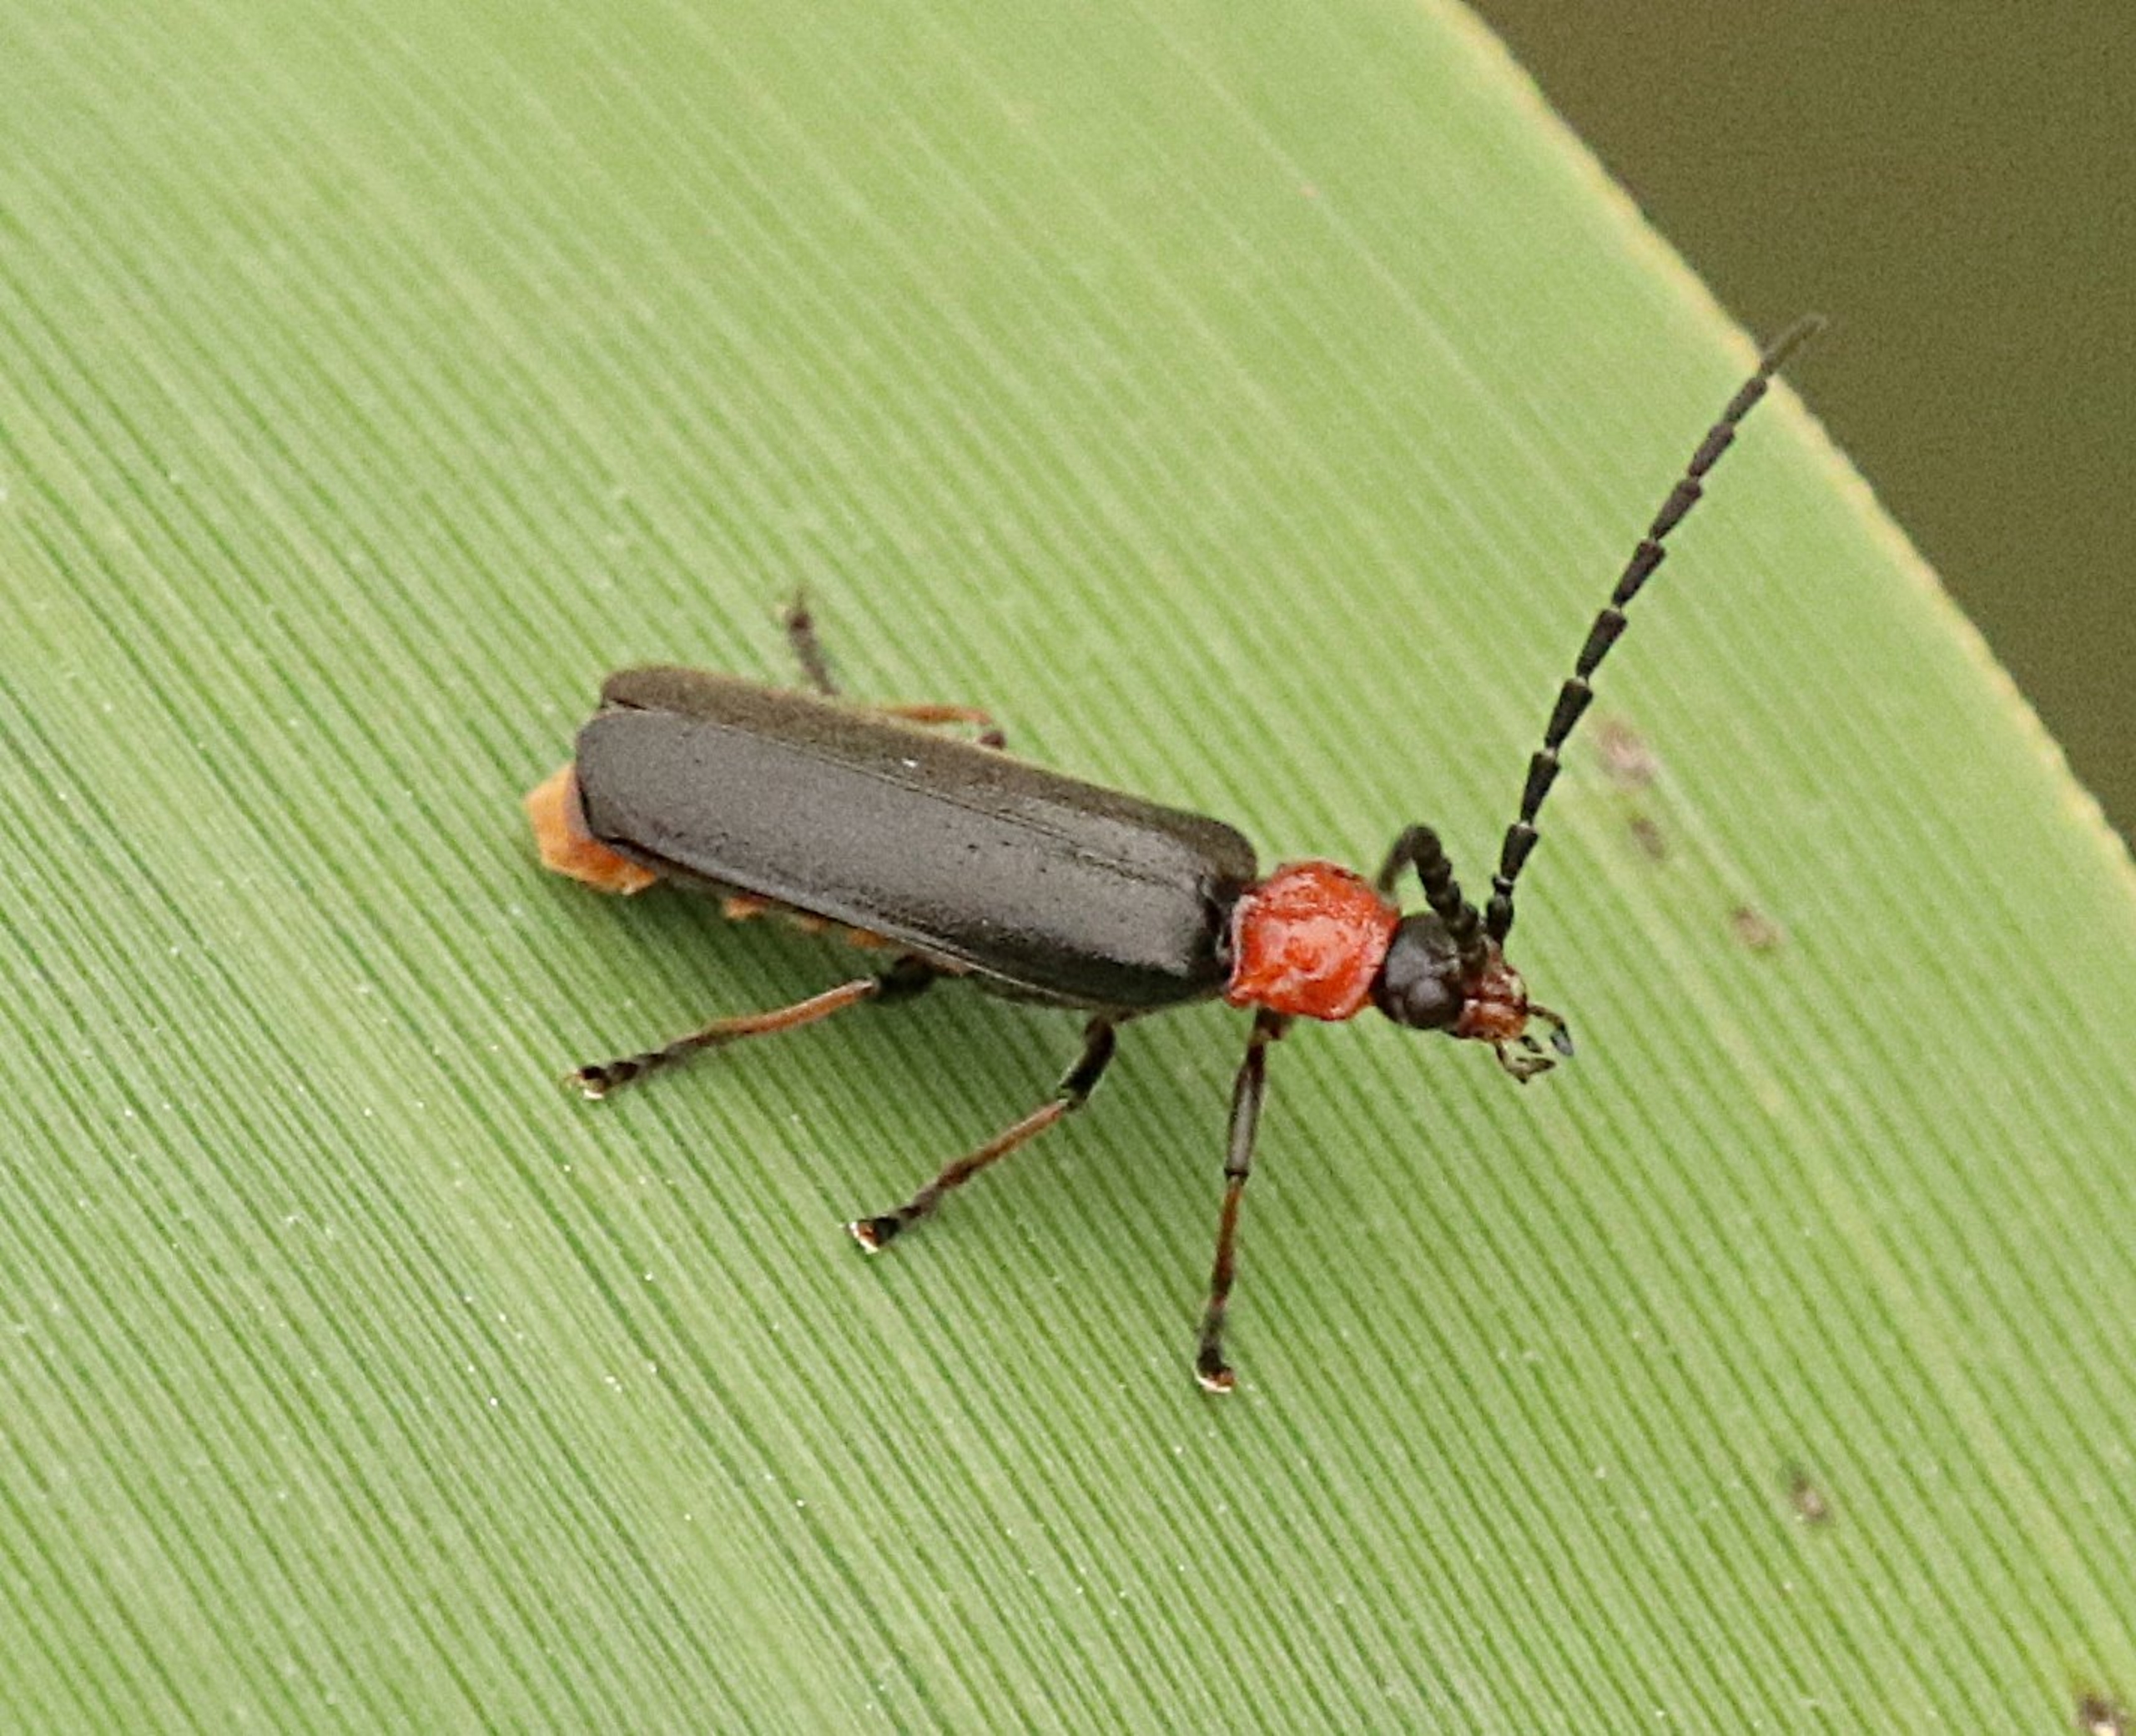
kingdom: Animalia
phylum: Arthropoda
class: Insecta
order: Coleoptera
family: Cantharidae
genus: Crudosilis
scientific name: Crudosilis ruficollis
